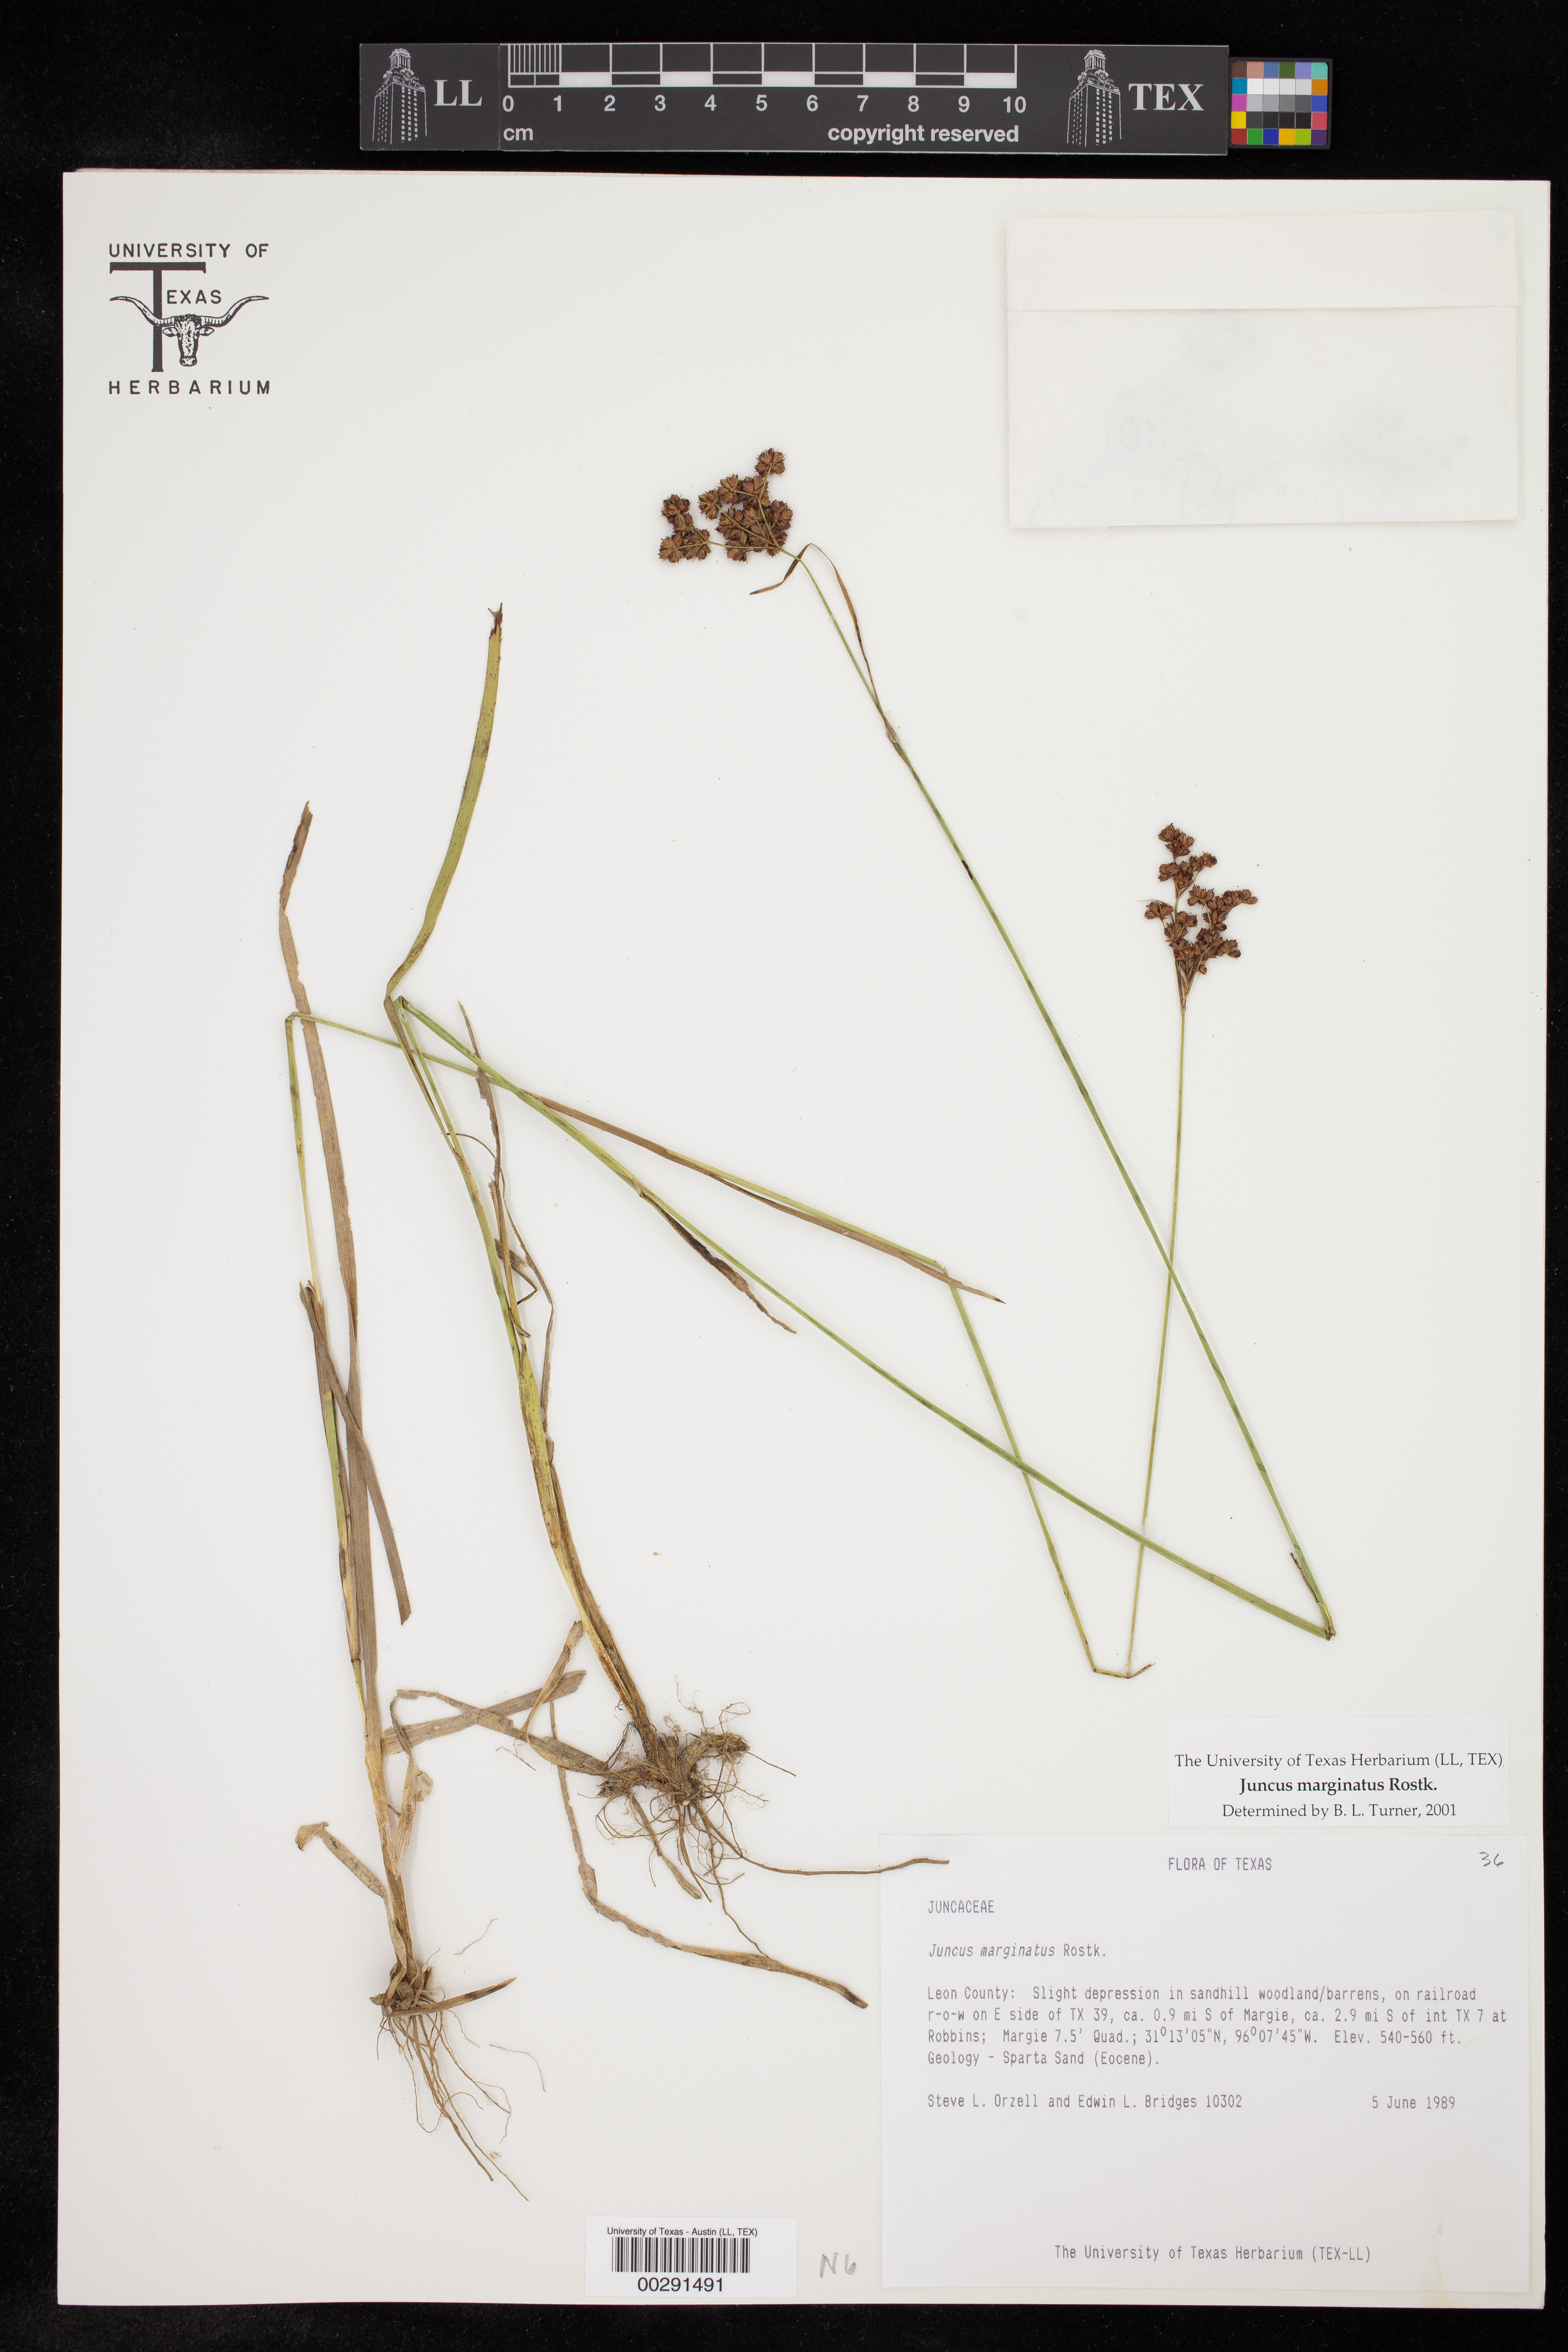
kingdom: Plantae
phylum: Tracheophyta
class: Liliopsida
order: Poales
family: Juncaceae
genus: Juncus
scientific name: Juncus marginatus
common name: Grass-leaf rush
